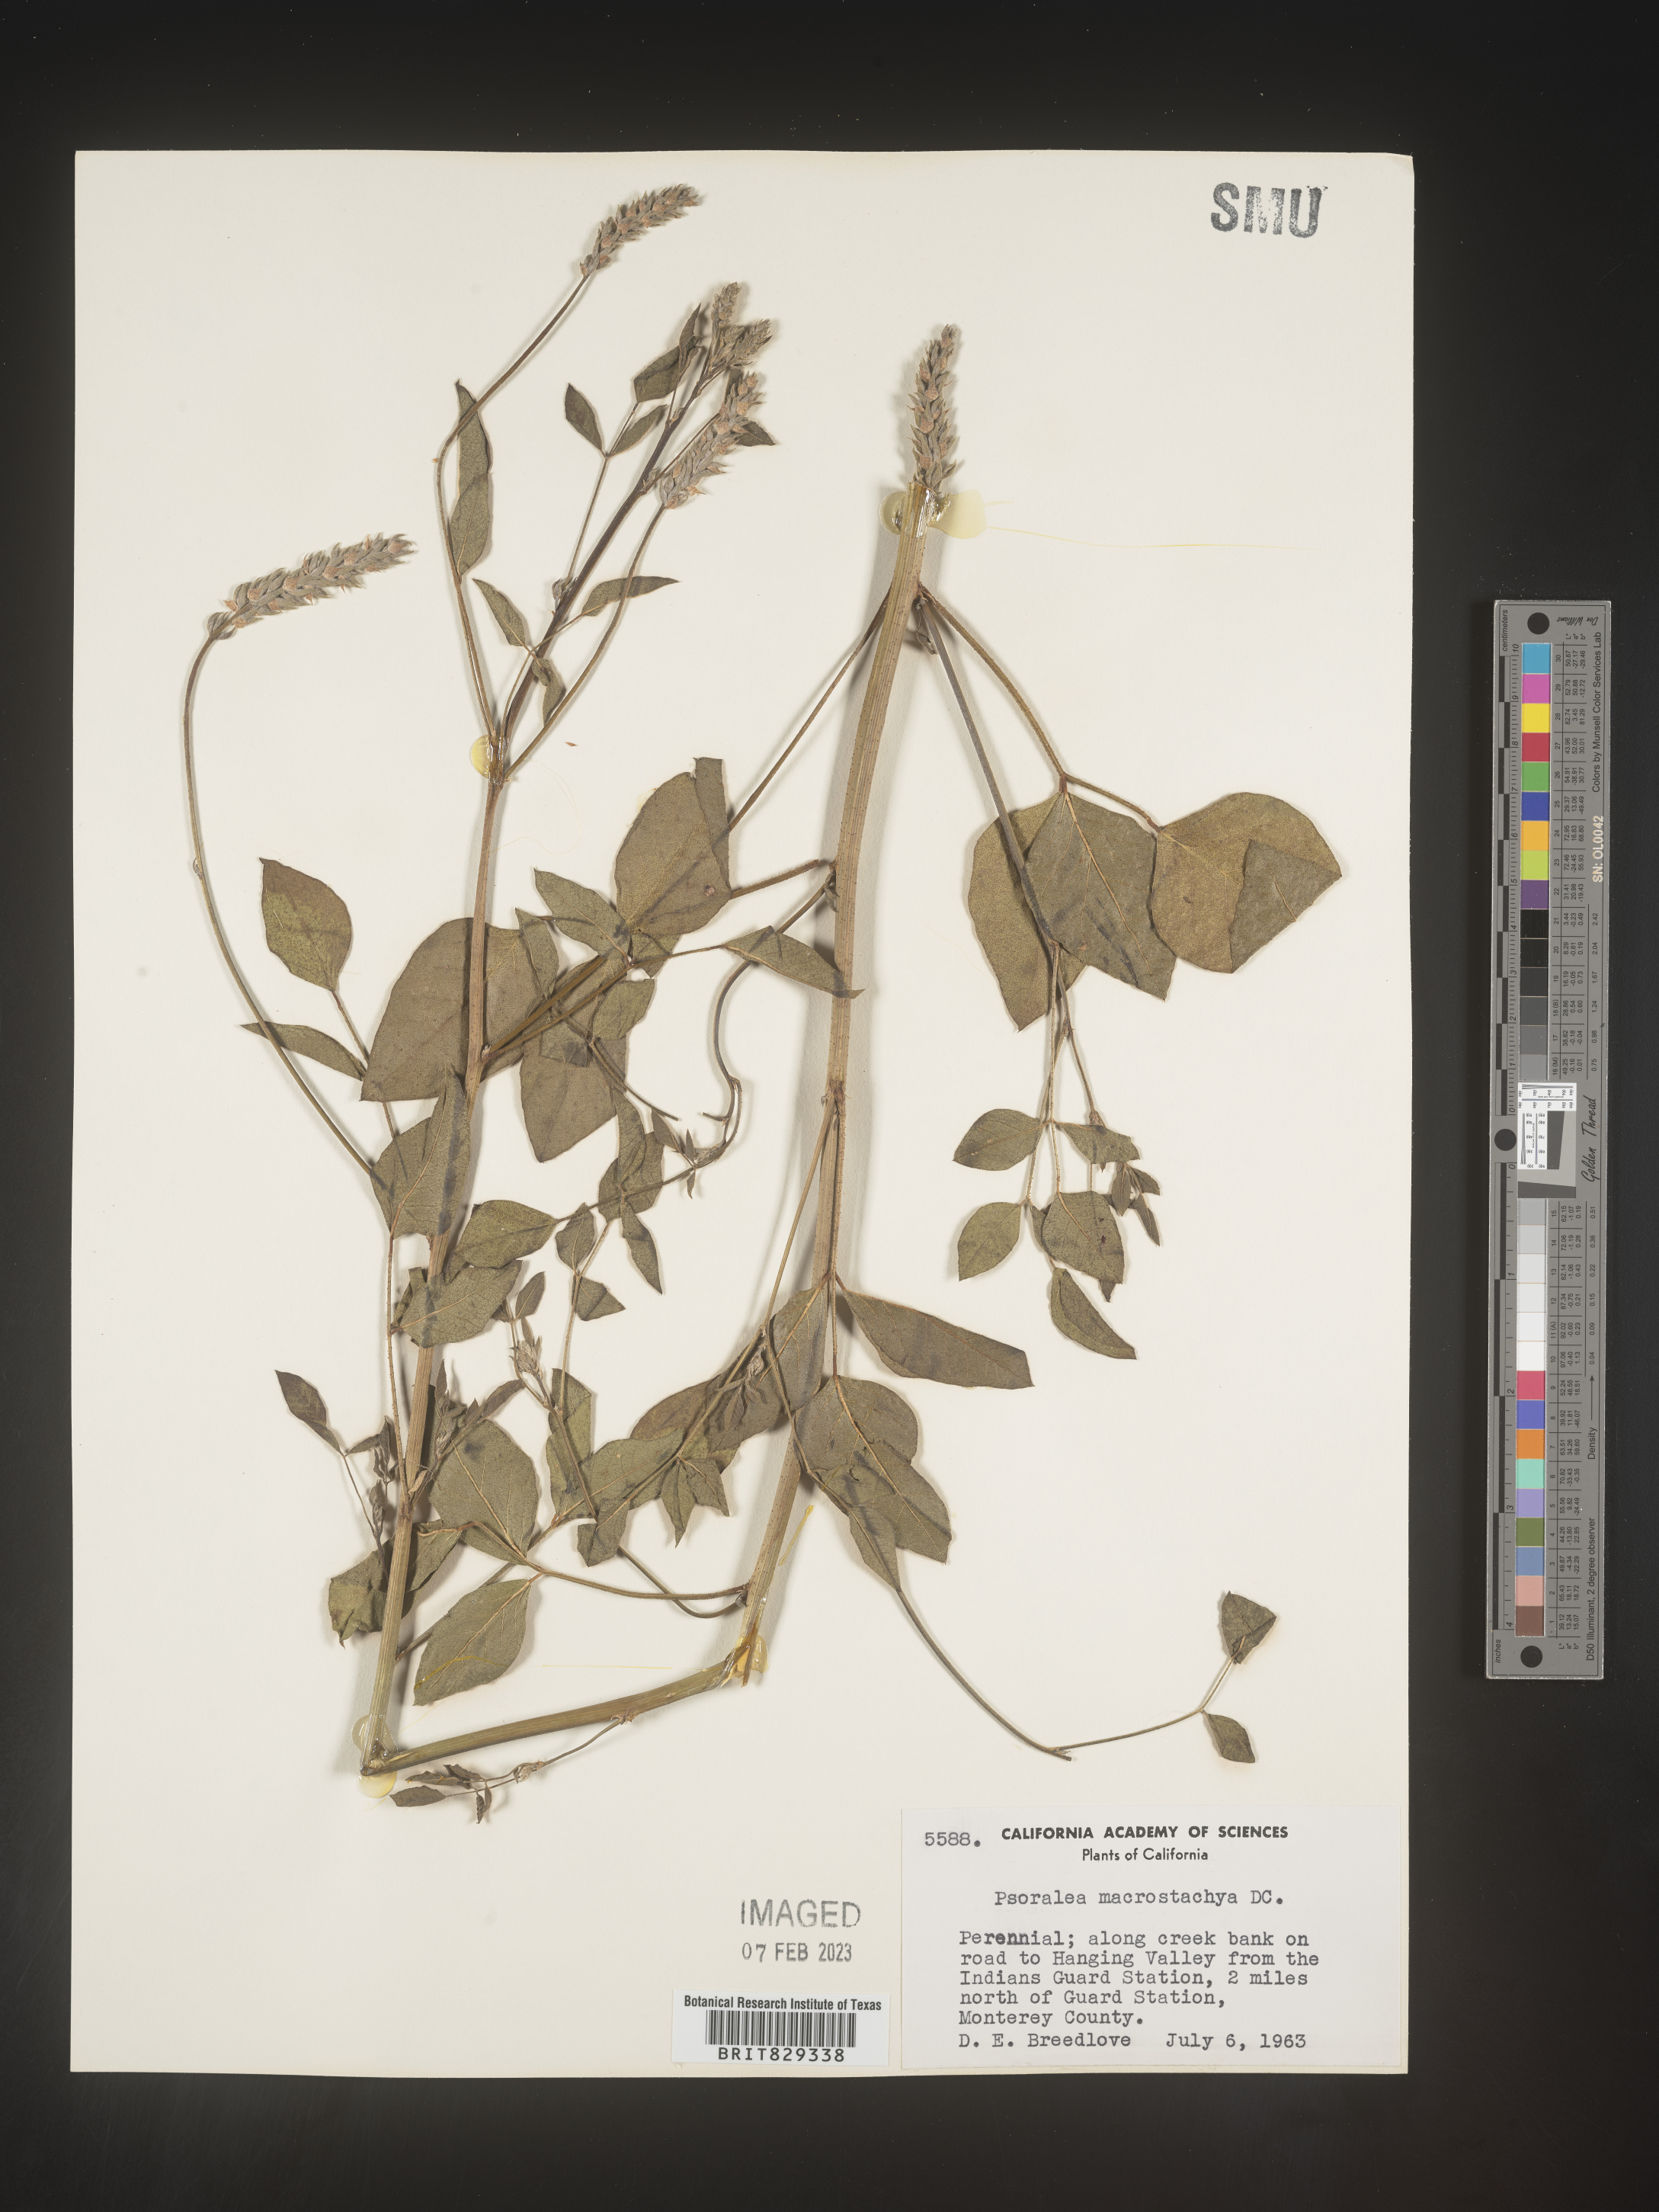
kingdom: Plantae
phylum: Tracheophyta
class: Magnoliopsida
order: Fabales
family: Fabaceae
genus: Psoralea
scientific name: Psoralea
